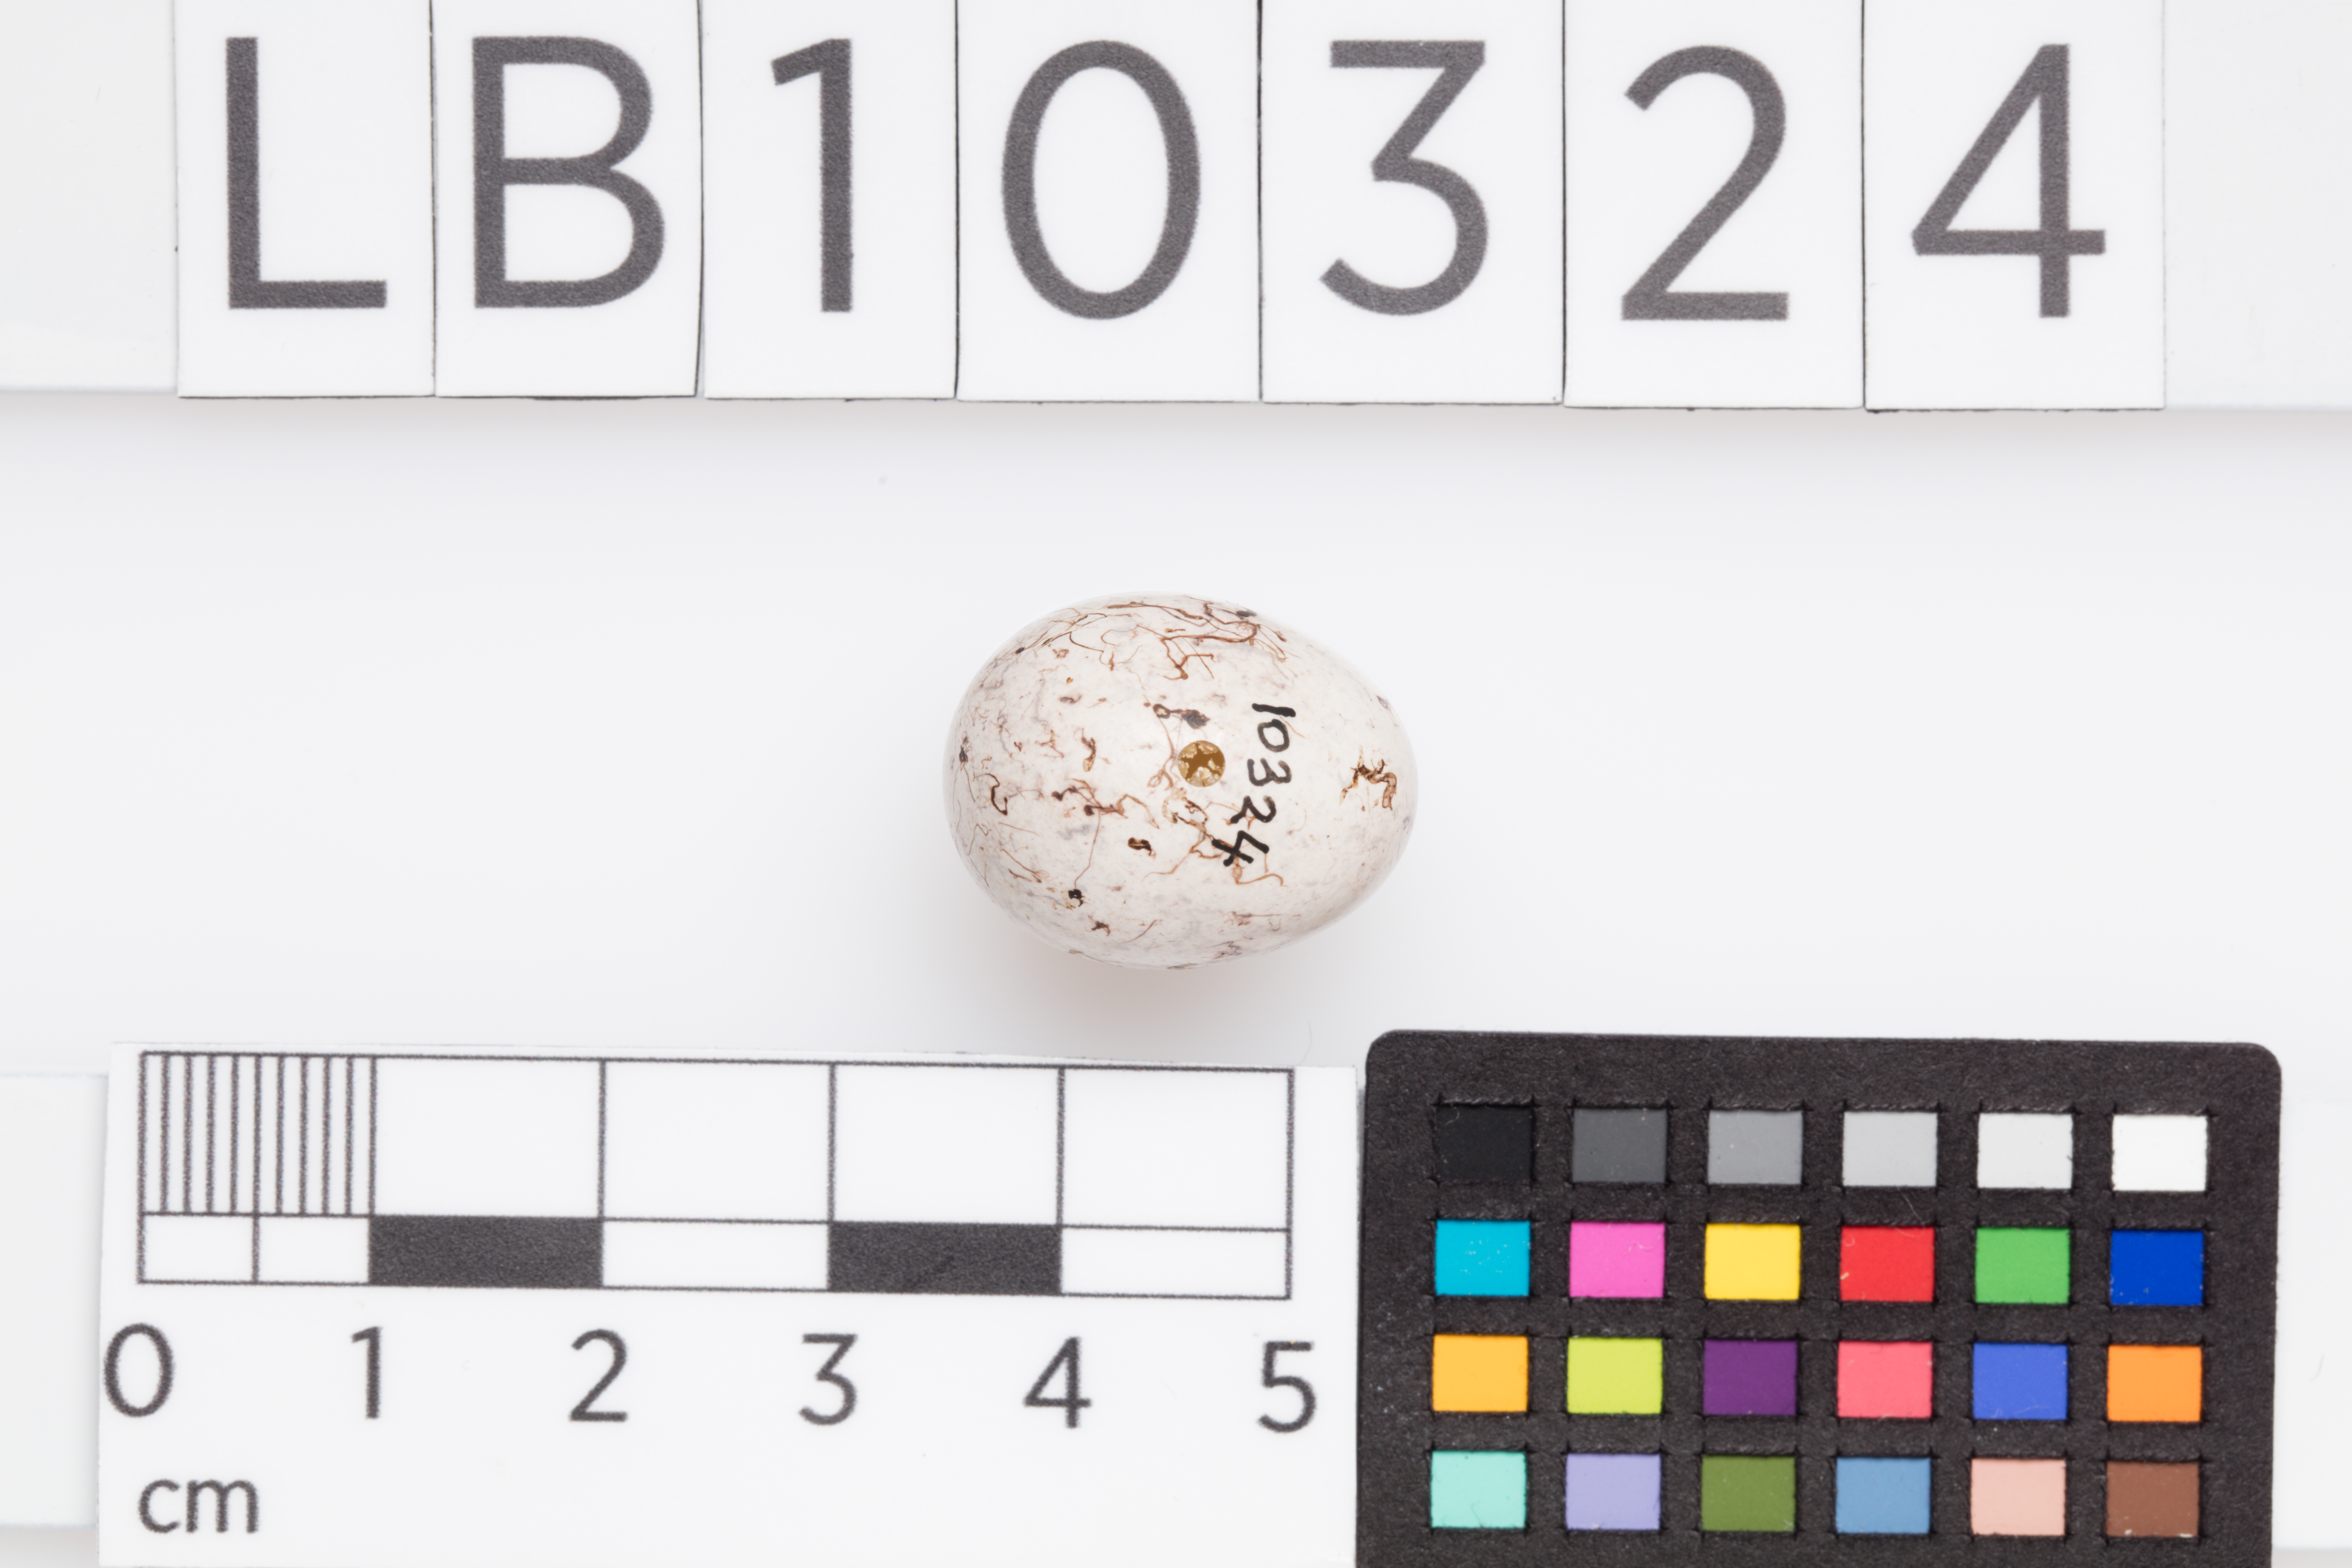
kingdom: Animalia
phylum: Chordata
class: Aves
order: Passeriformes
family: Emberizidae
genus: Emberiza
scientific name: Emberiza citrinella
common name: Yellowhammer
